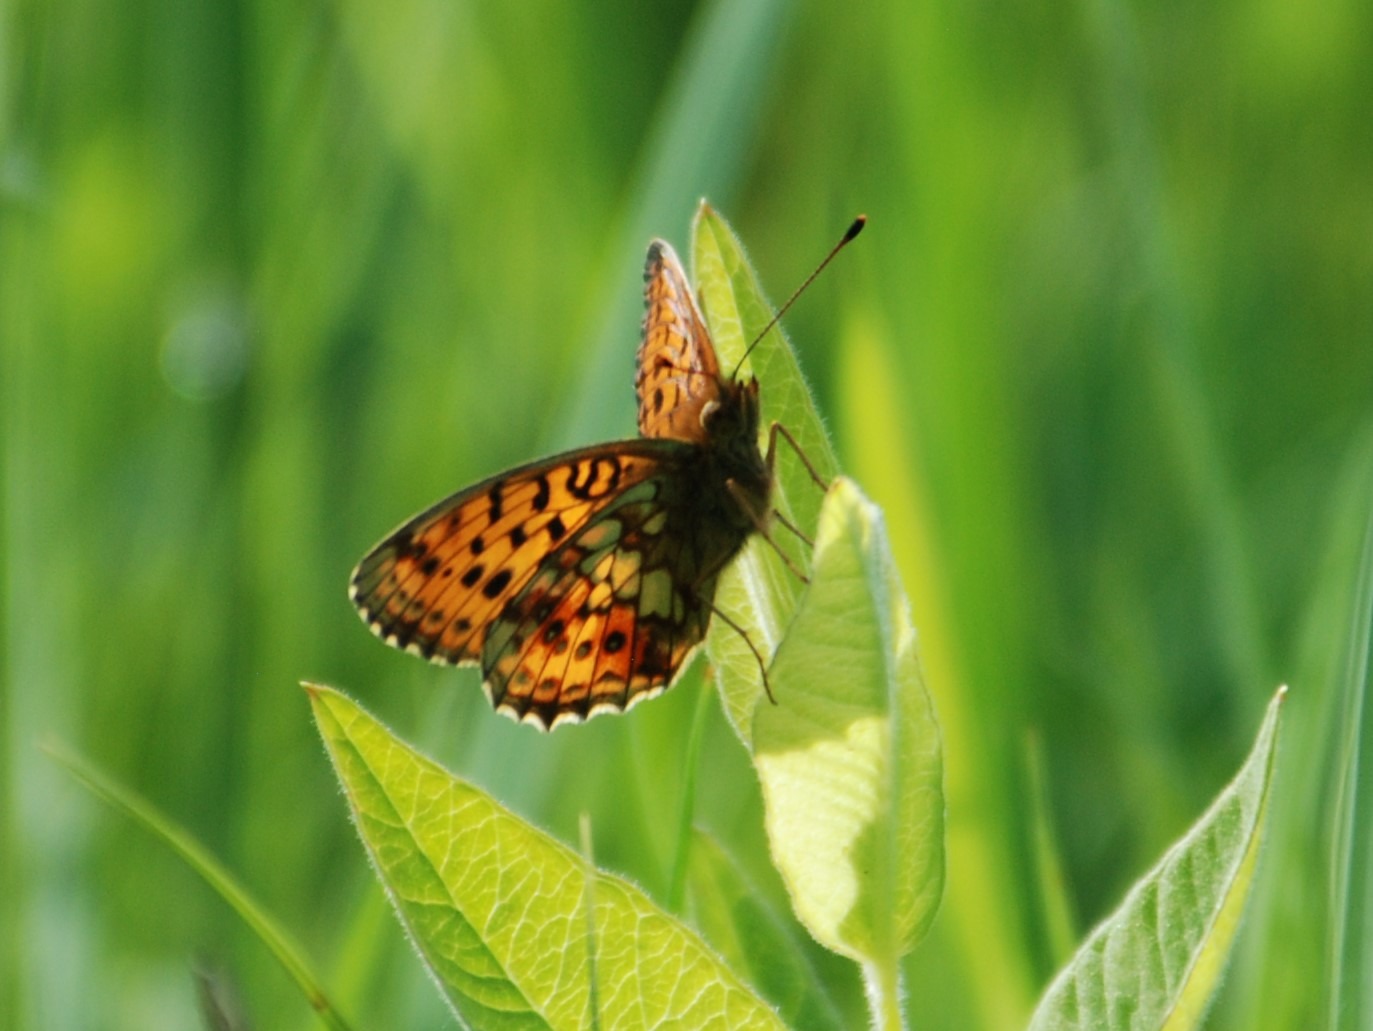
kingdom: Animalia
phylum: Arthropoda
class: Insecta
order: Lepidoptera
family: Nymphalidae
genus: Brenthis
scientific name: Brenthis ino
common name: Engperlemorsommerfugl
